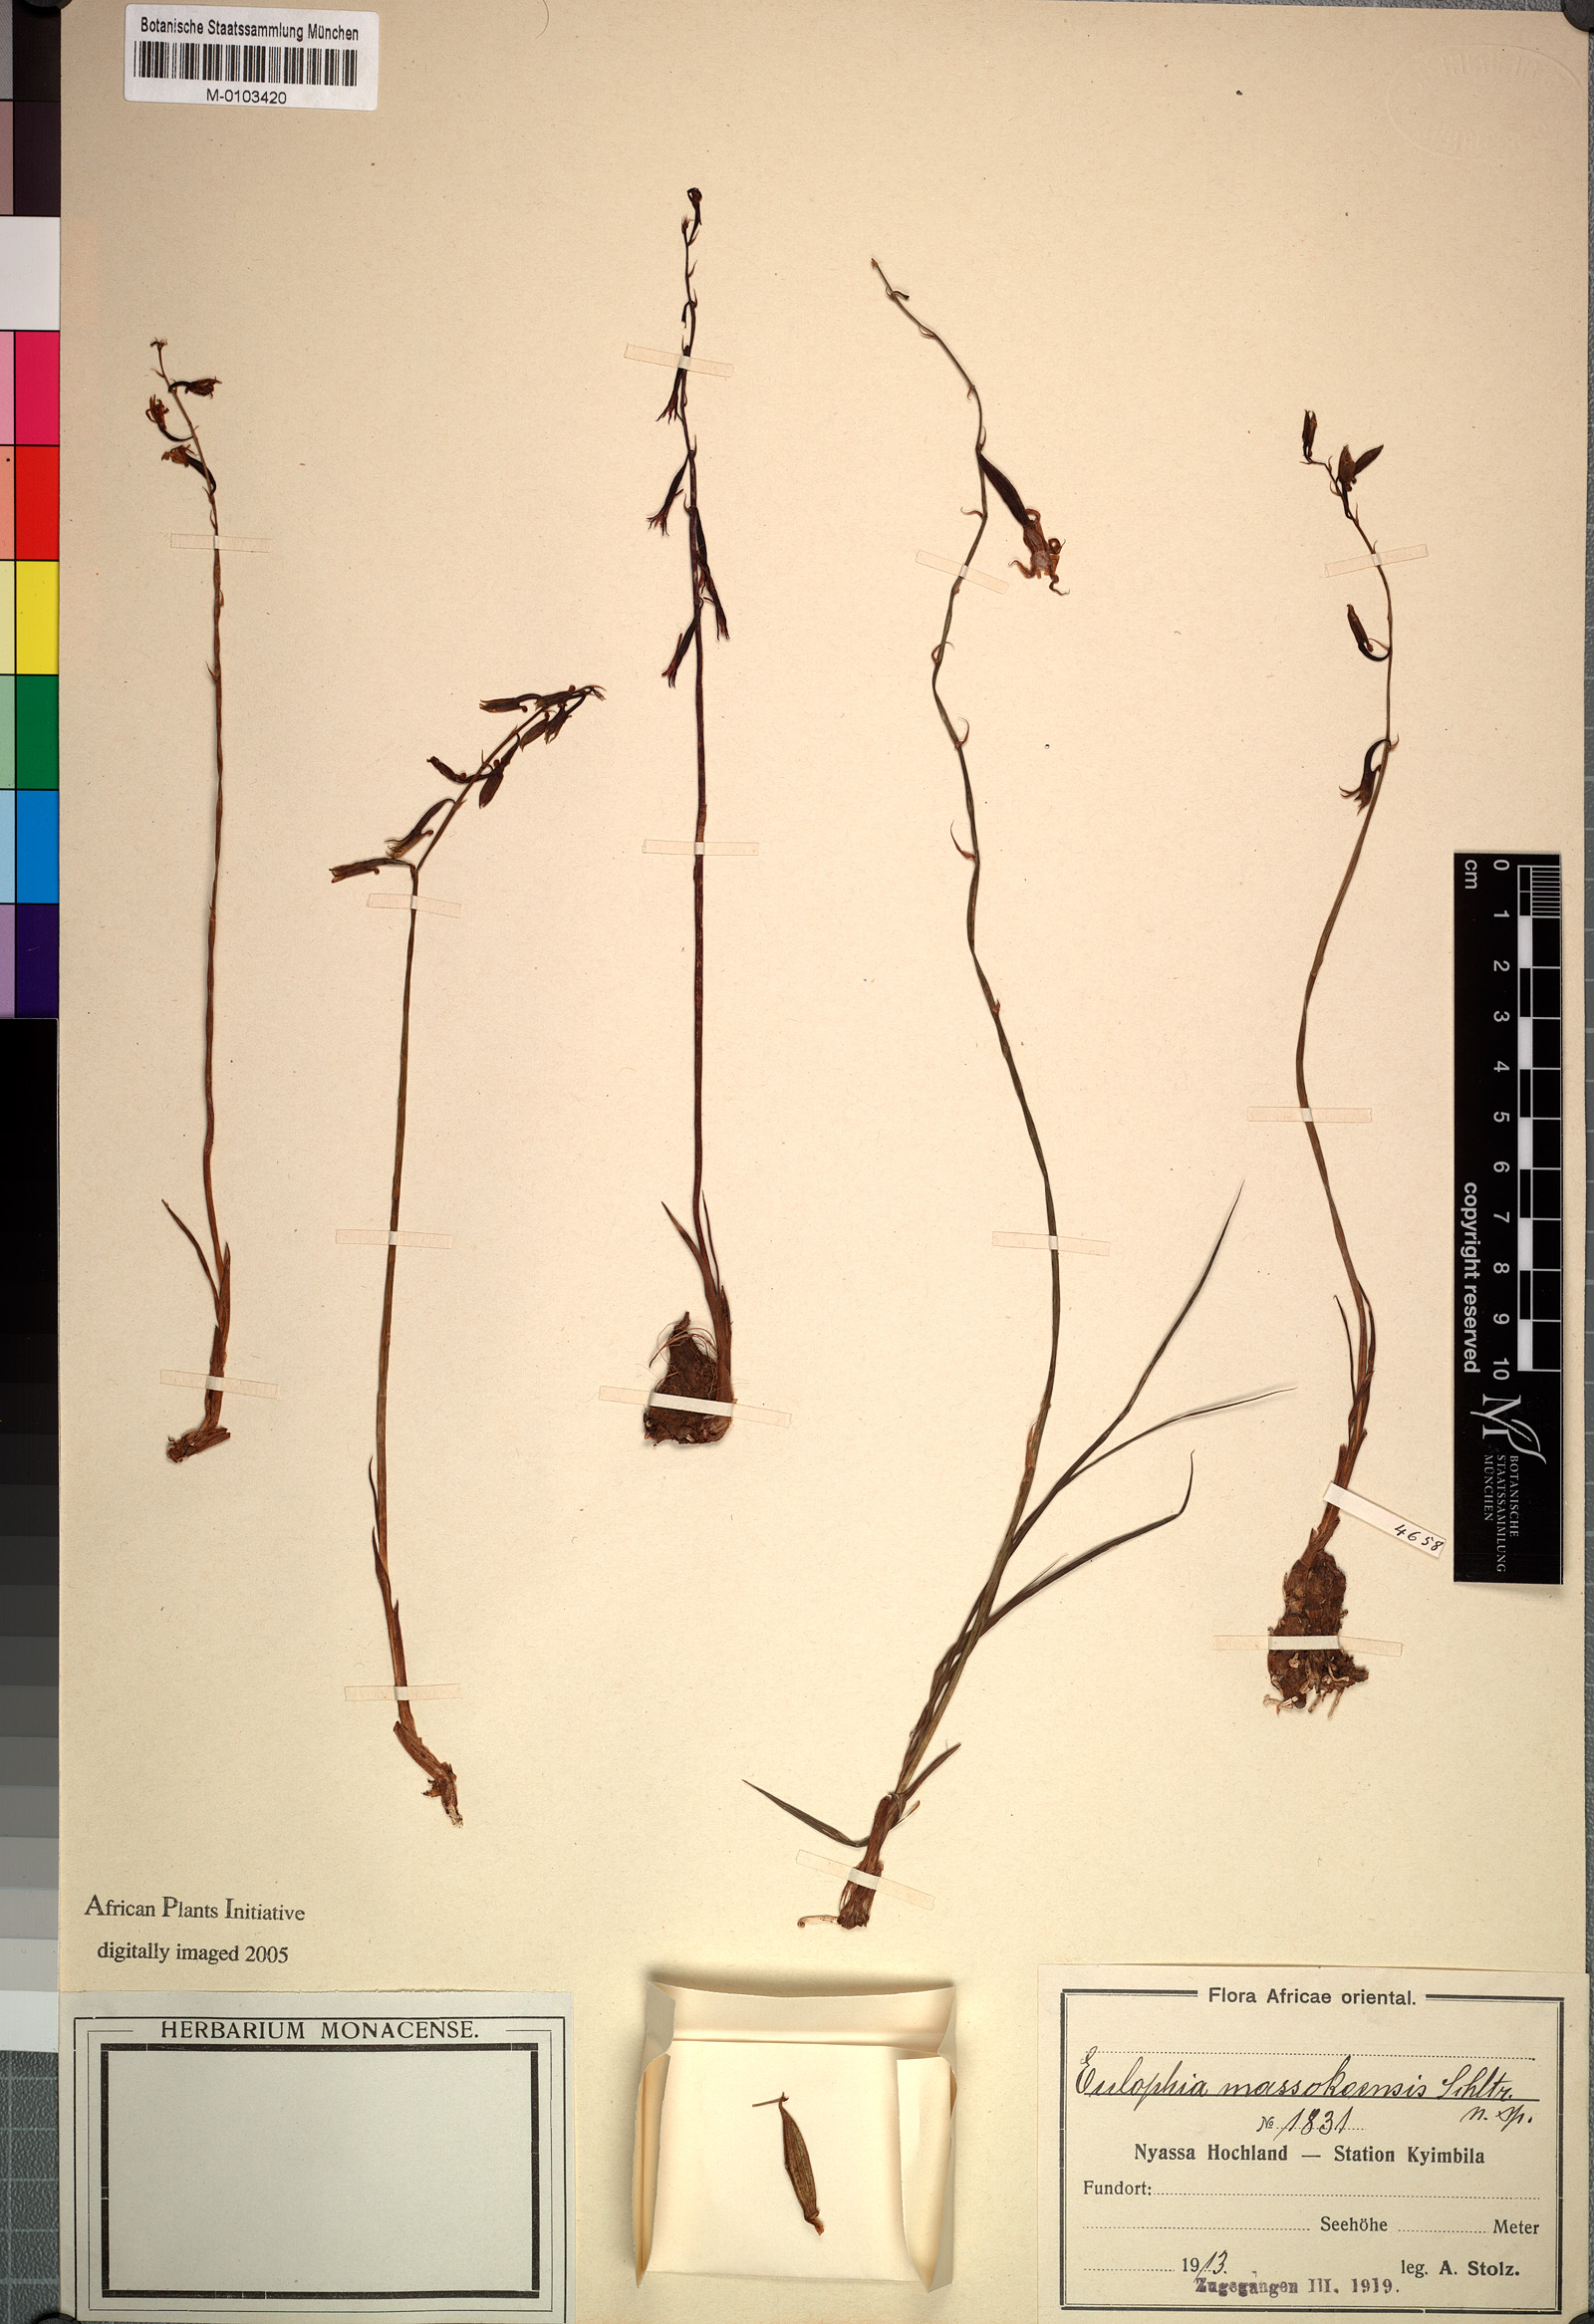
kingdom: Plantae
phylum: Tracheophyta
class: Liliopsida
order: Asparagales
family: Orchidaceae
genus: Eulophia
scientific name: Eulophia massokoensis
